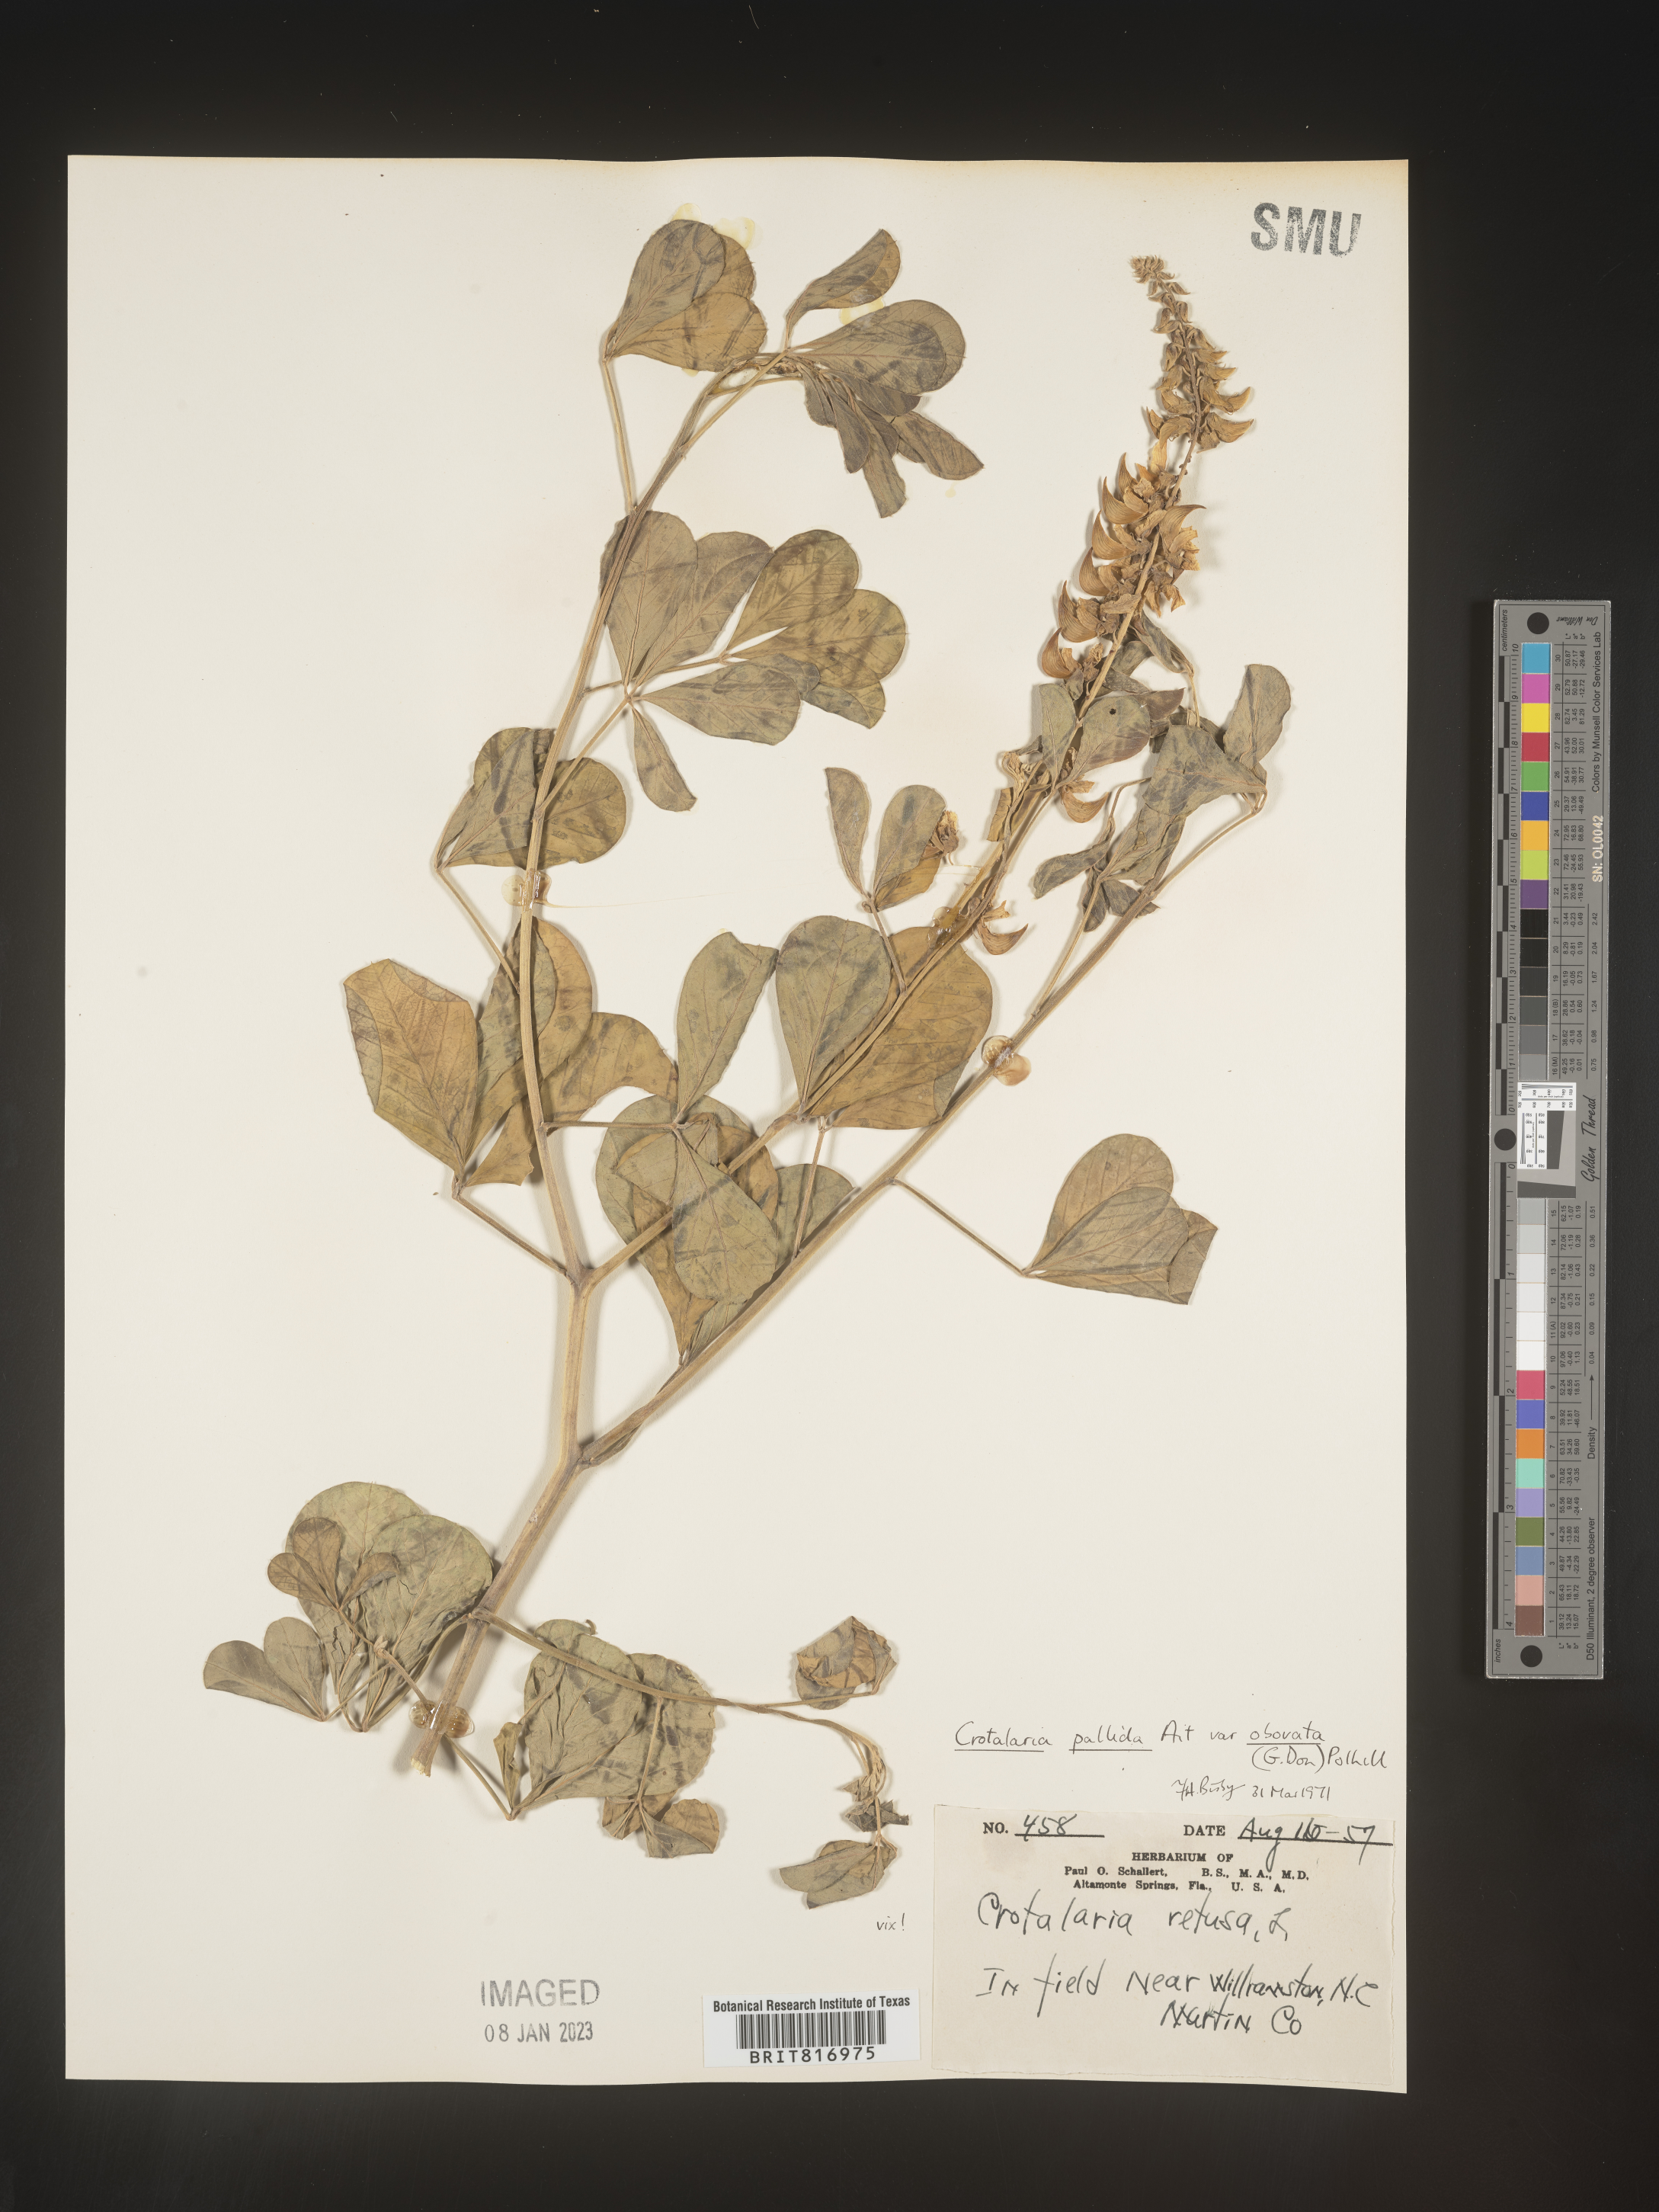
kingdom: Plantae
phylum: Tracheophyta
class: Magnoliopsida
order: Fabales
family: Fabaceae
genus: Crotalaria
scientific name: Crotalaria
